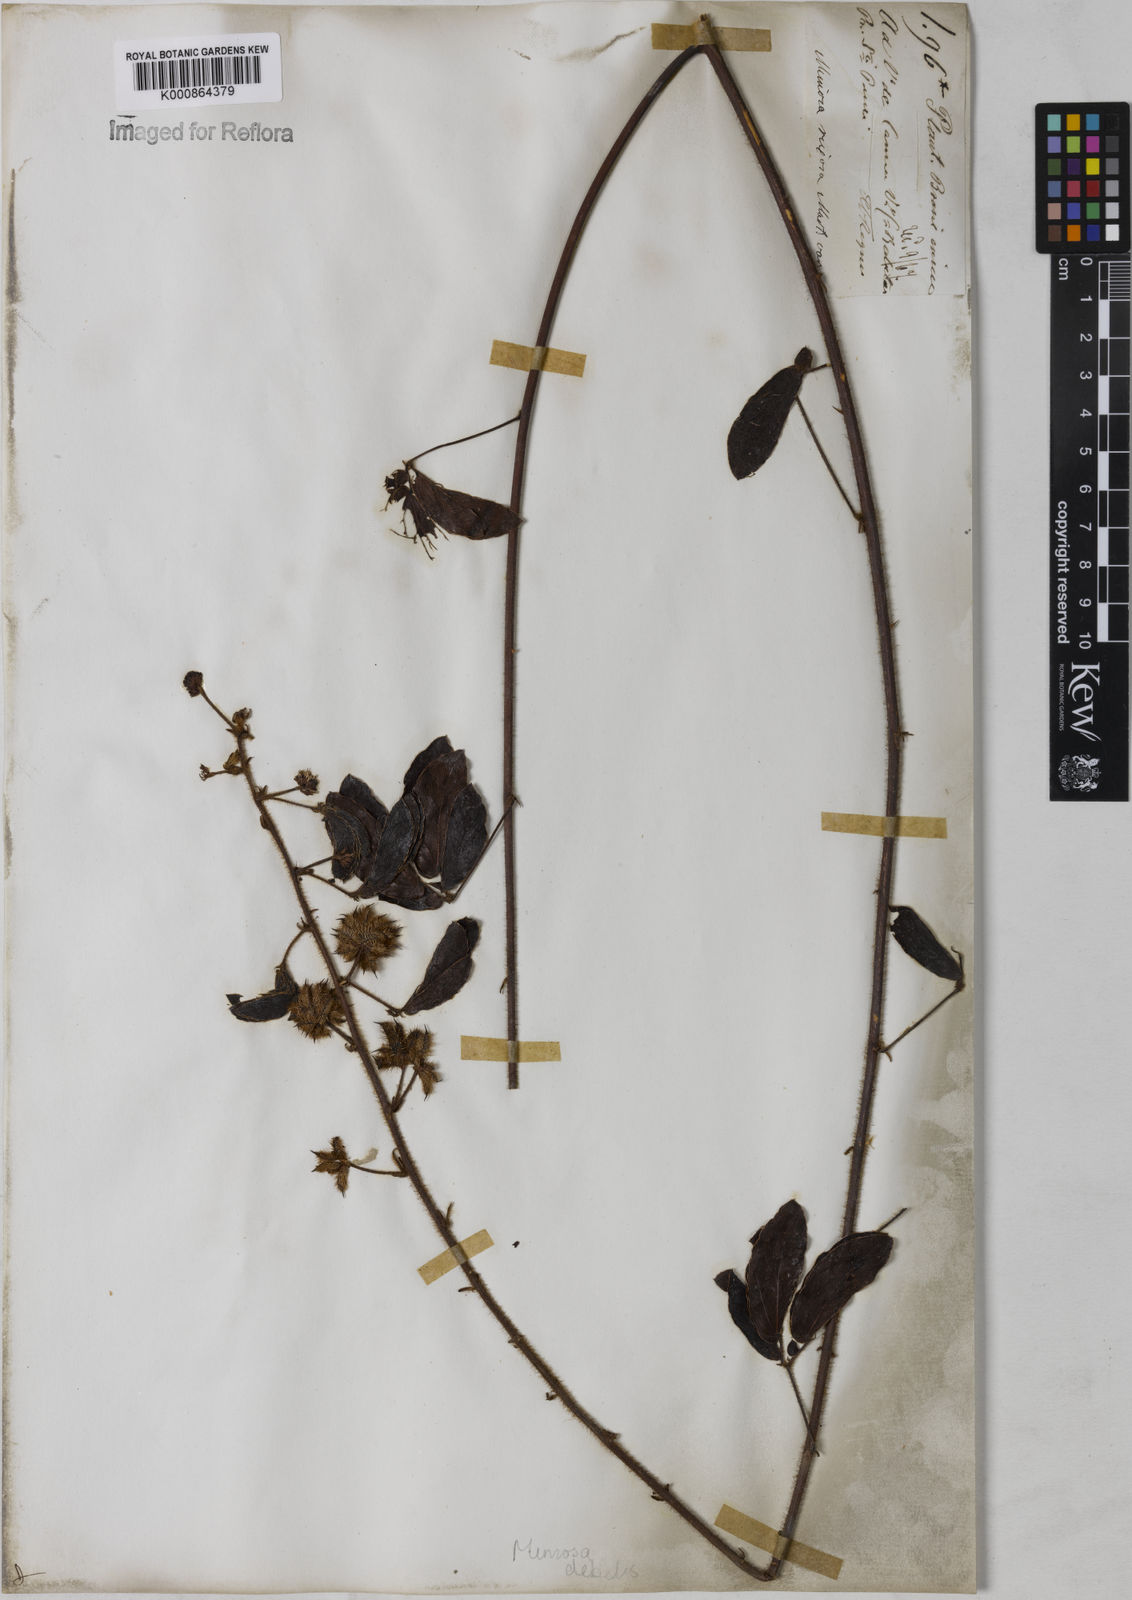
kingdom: Plantae
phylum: Tracheophyta
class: Magnoliopsida
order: Fabales
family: Fabaceae
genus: Mimosa
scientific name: Mimosa
